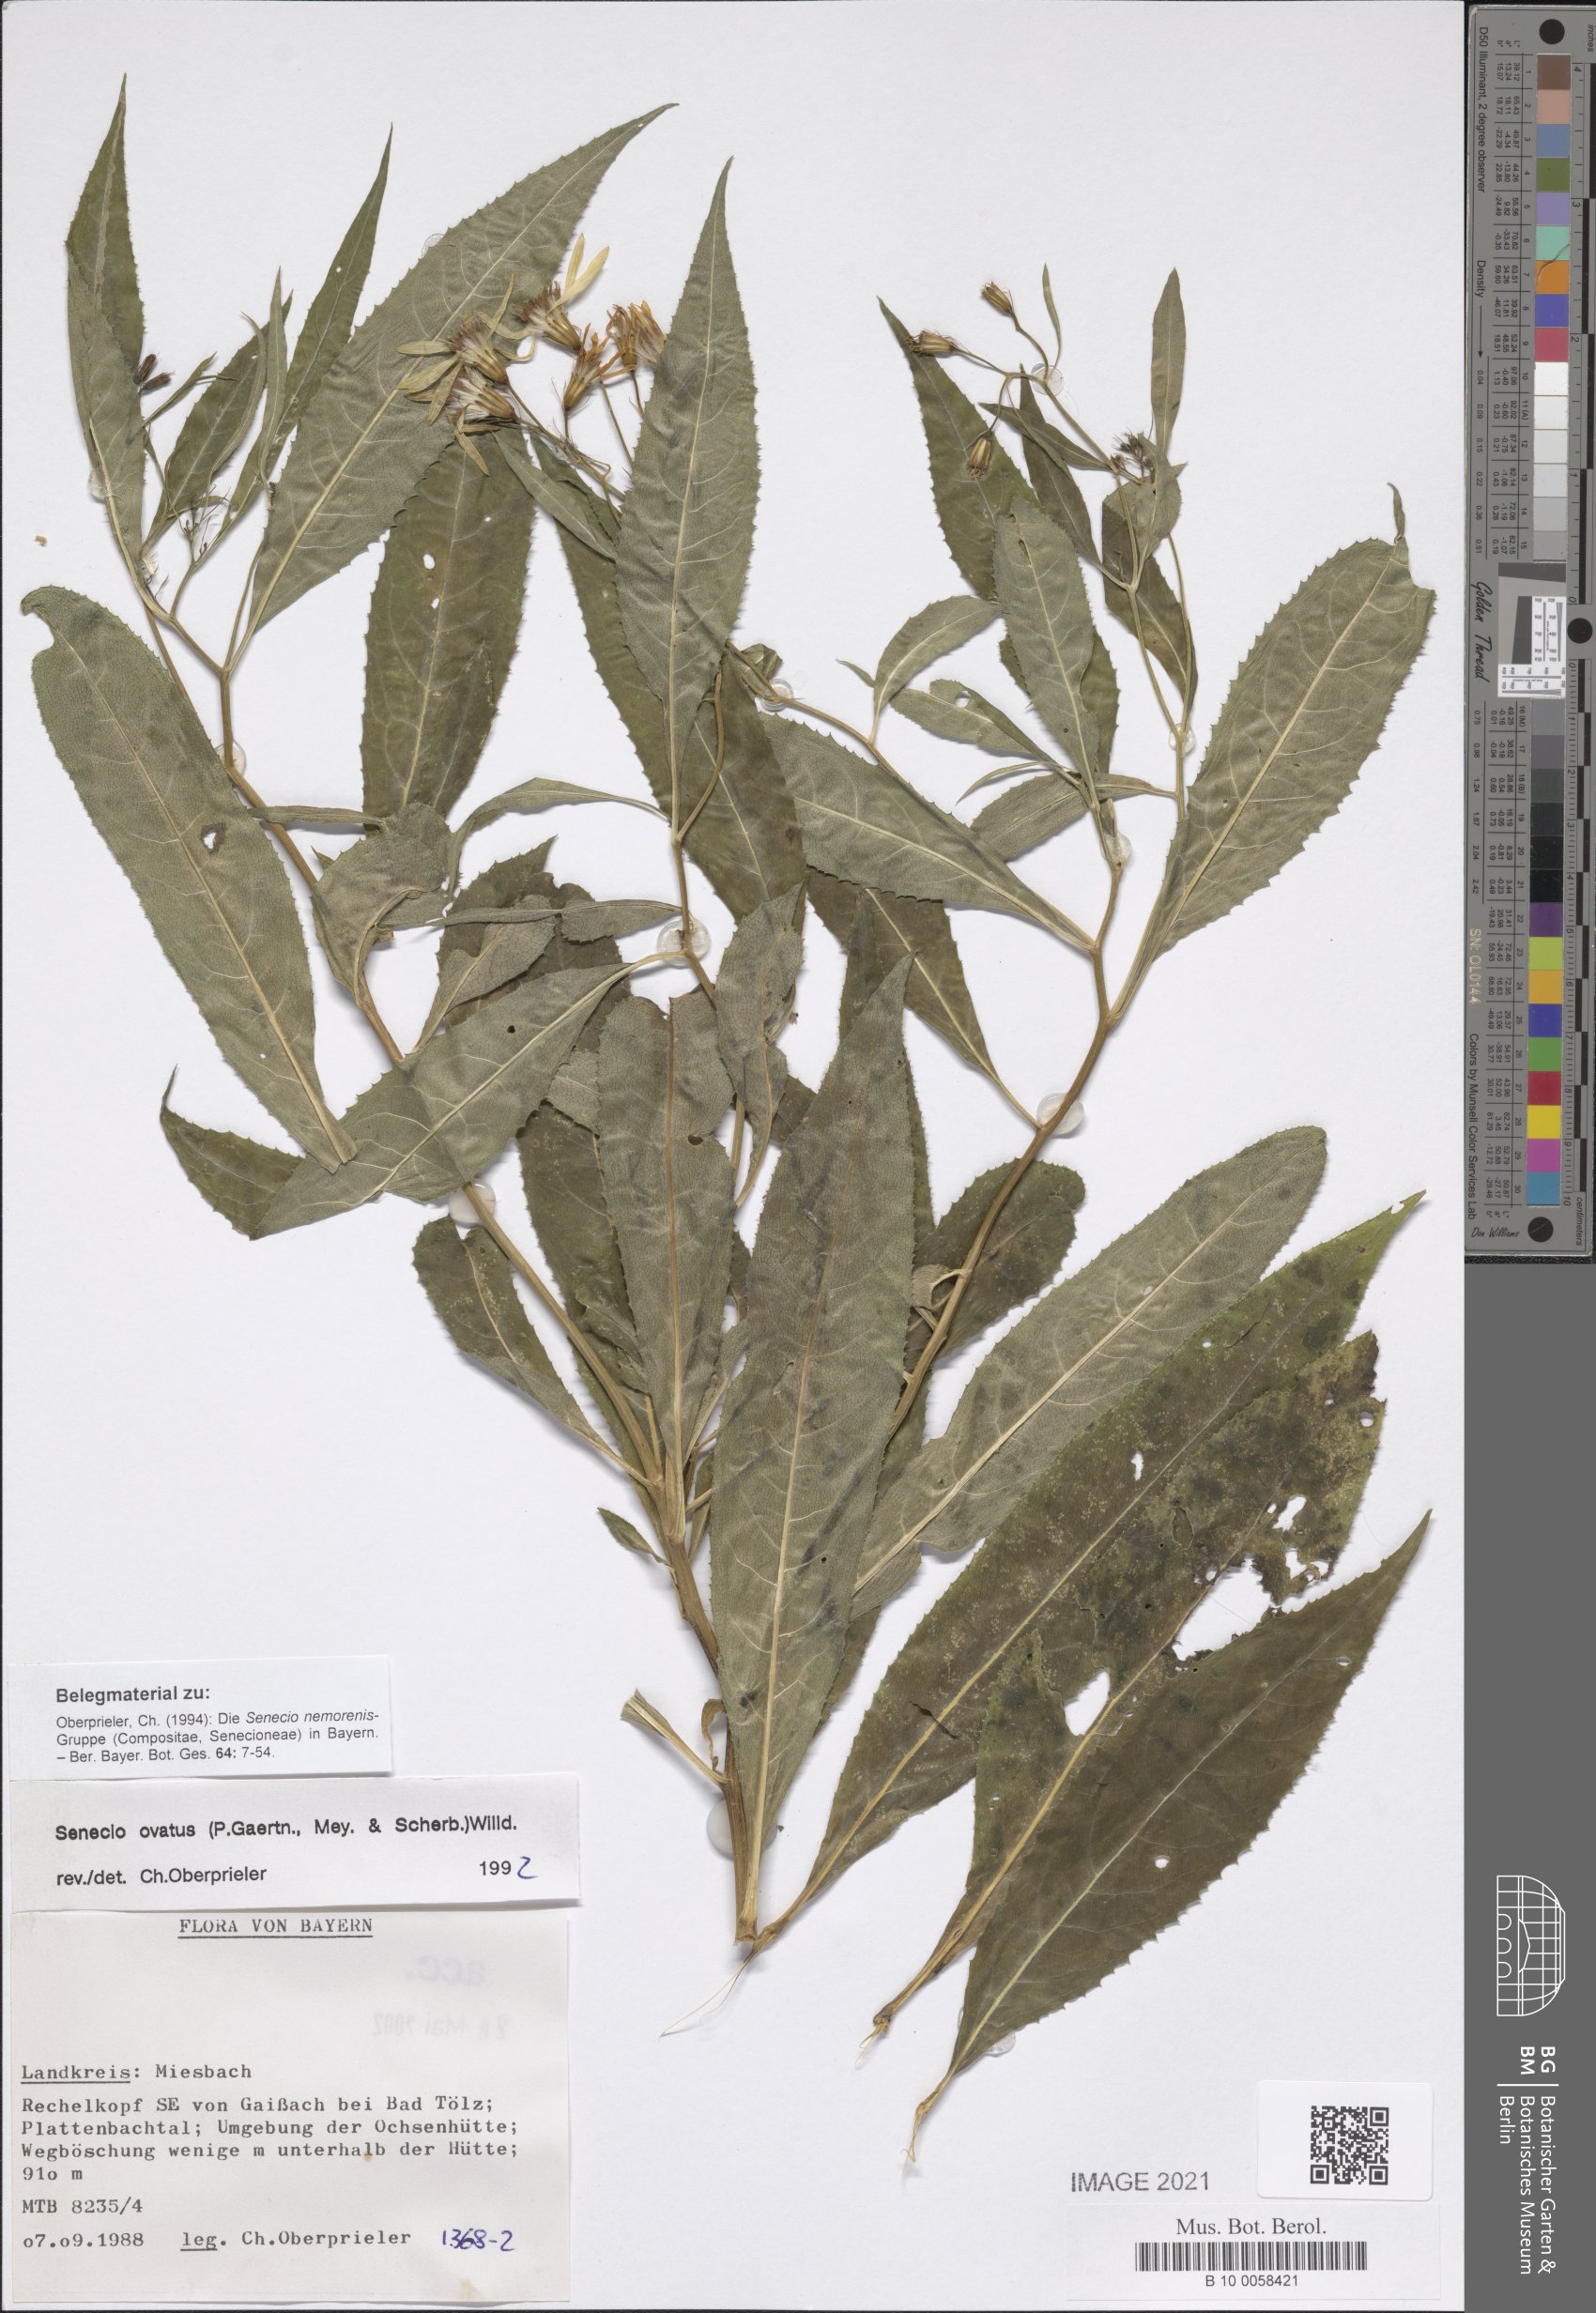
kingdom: Plantae
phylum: Tracheophyta
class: Magnoliopsida
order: Asterales
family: Asteraceae
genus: Senecio
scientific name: Senecio ovatus
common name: Wood ragwort
